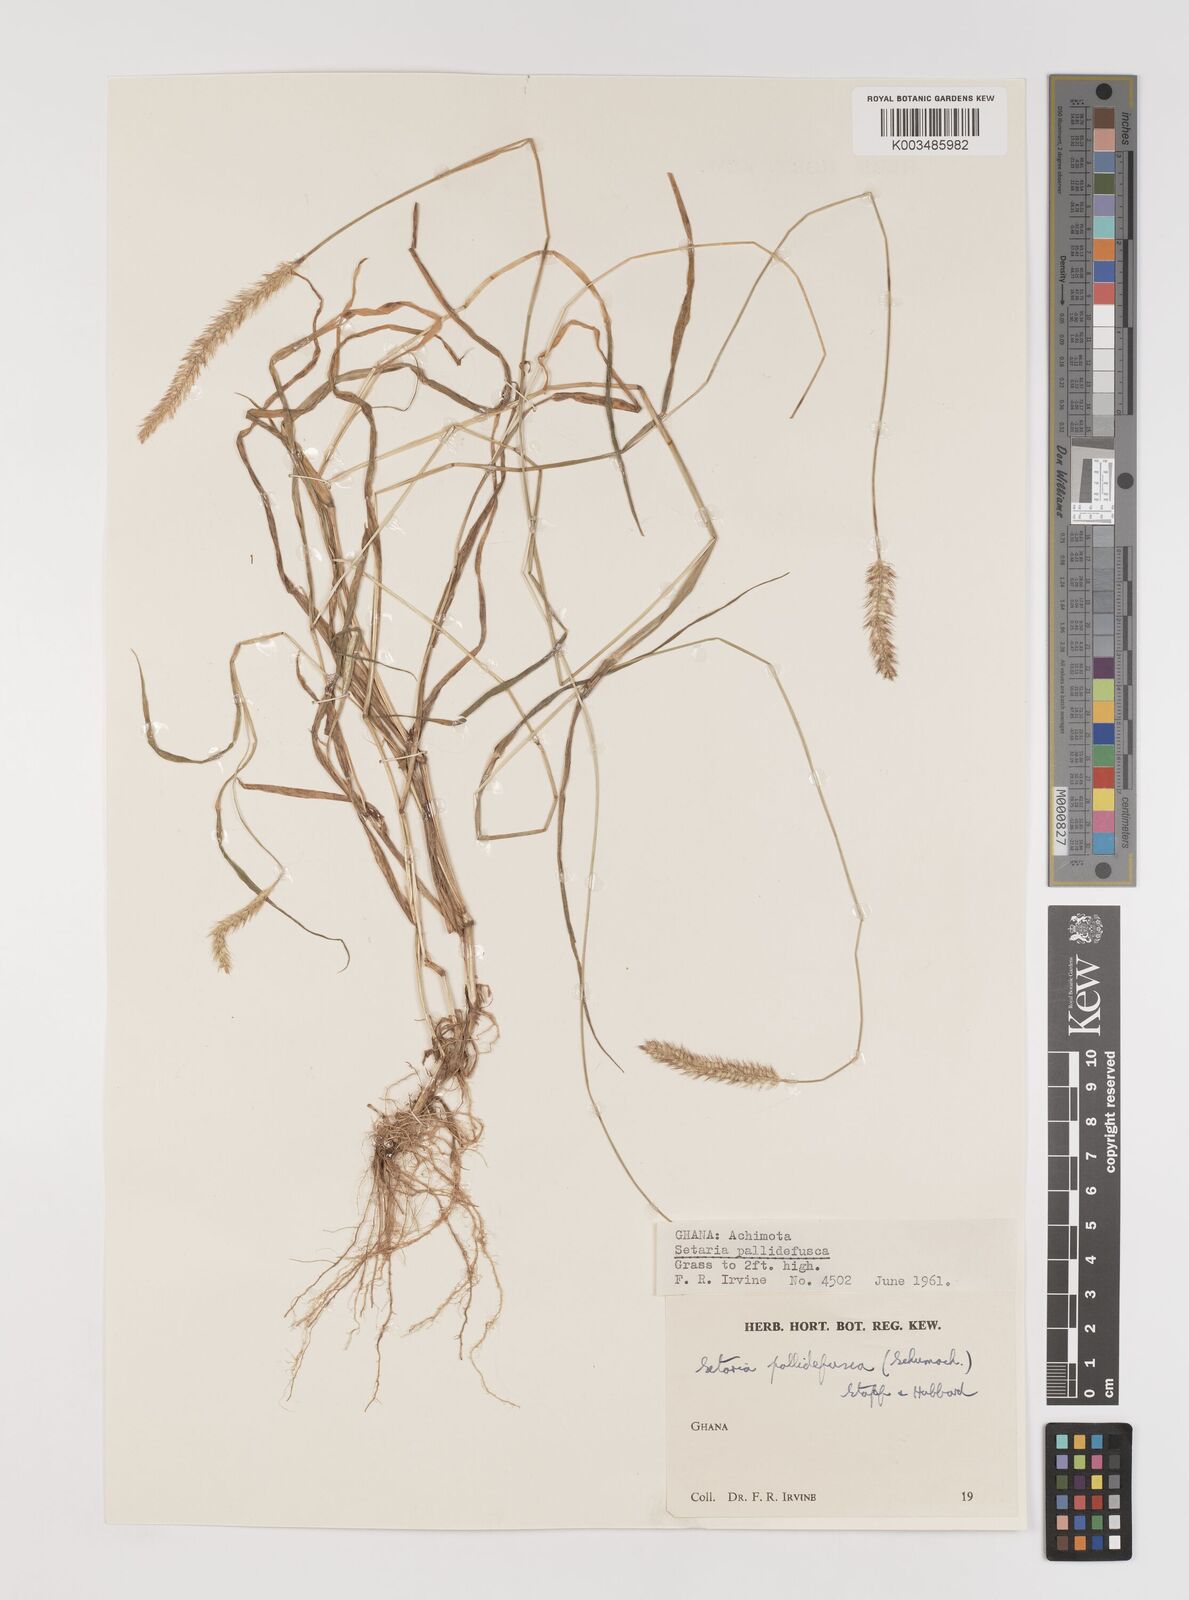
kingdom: Plantae
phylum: Tracheophyta
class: Liliopsida
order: Poales
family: Poaceae
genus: Setaria
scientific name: Setaria pumila
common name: Yellow bristle-grass
